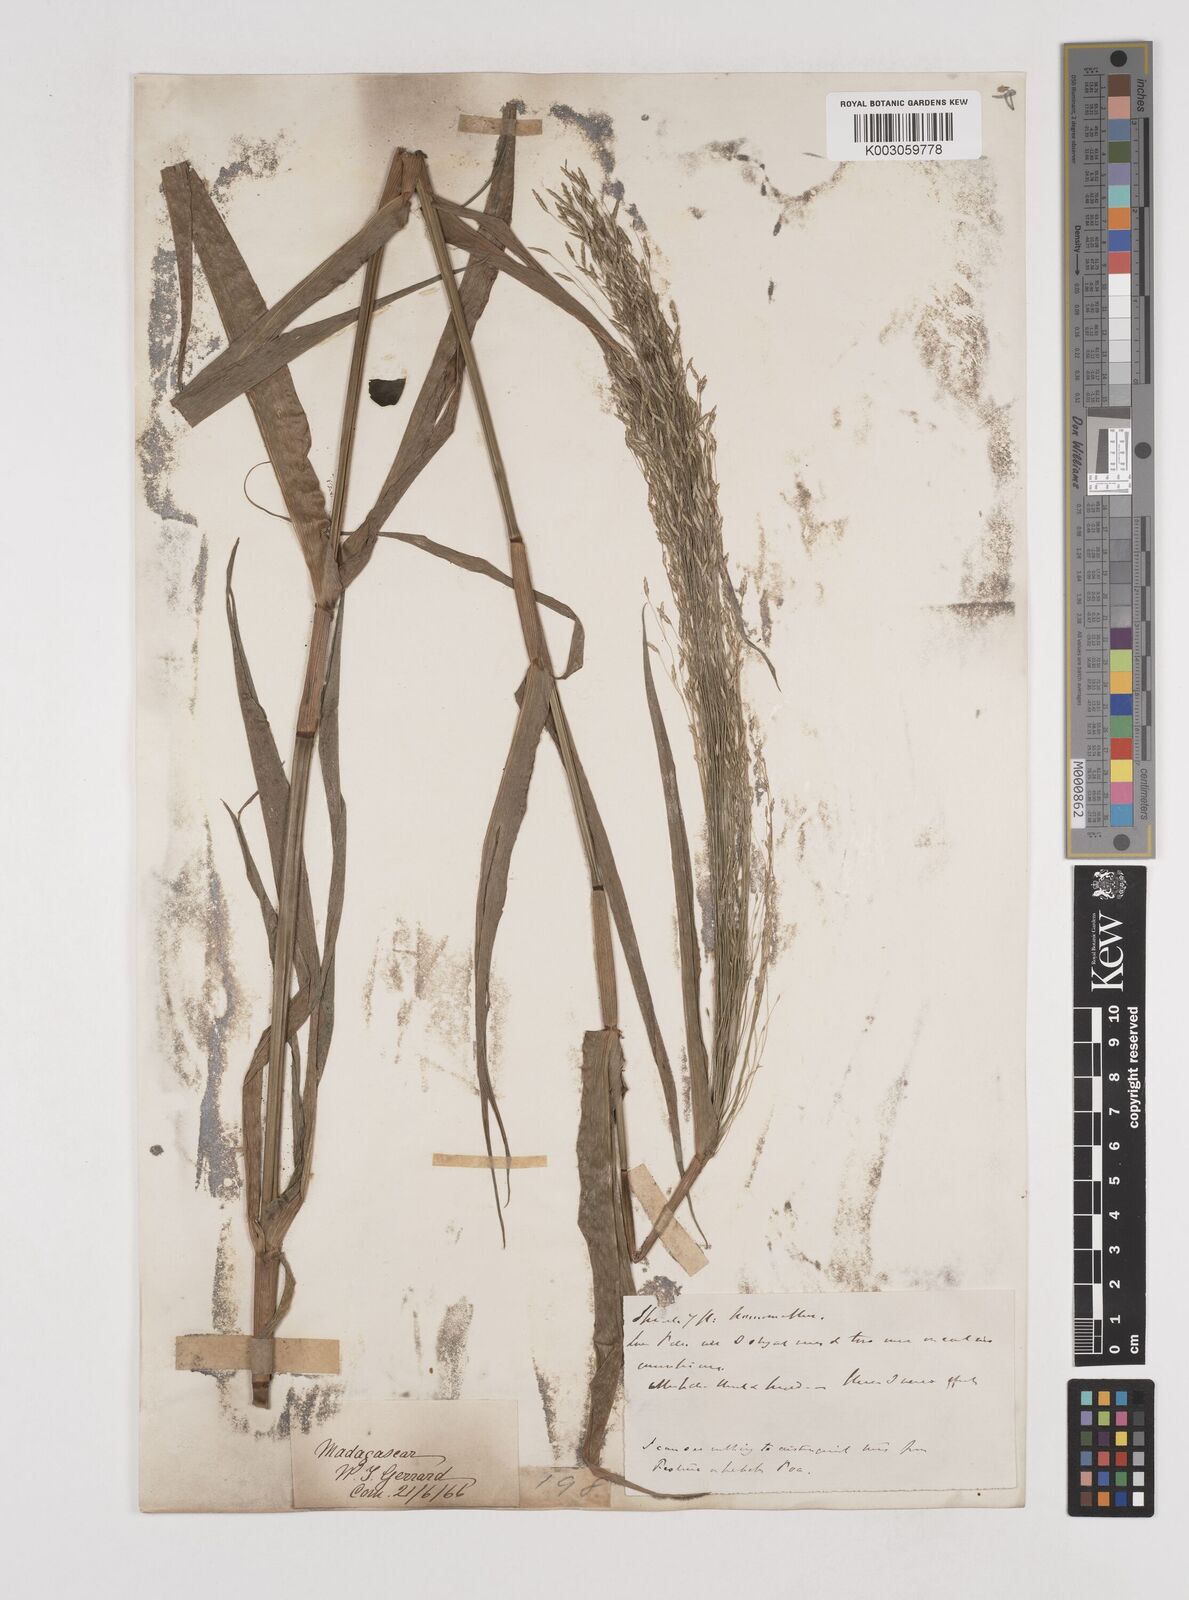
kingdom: Plantae
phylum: Tracheophyta
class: Liliopsida
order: Poales
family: Poaceae
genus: Megastachya
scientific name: Megastachya madagascariensis
